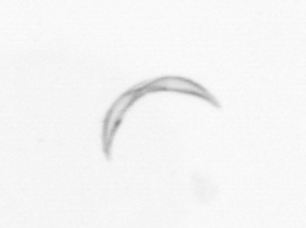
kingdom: Chromista
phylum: Ochrophyta
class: Bacillariophyceae
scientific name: Bacillariophyceae
